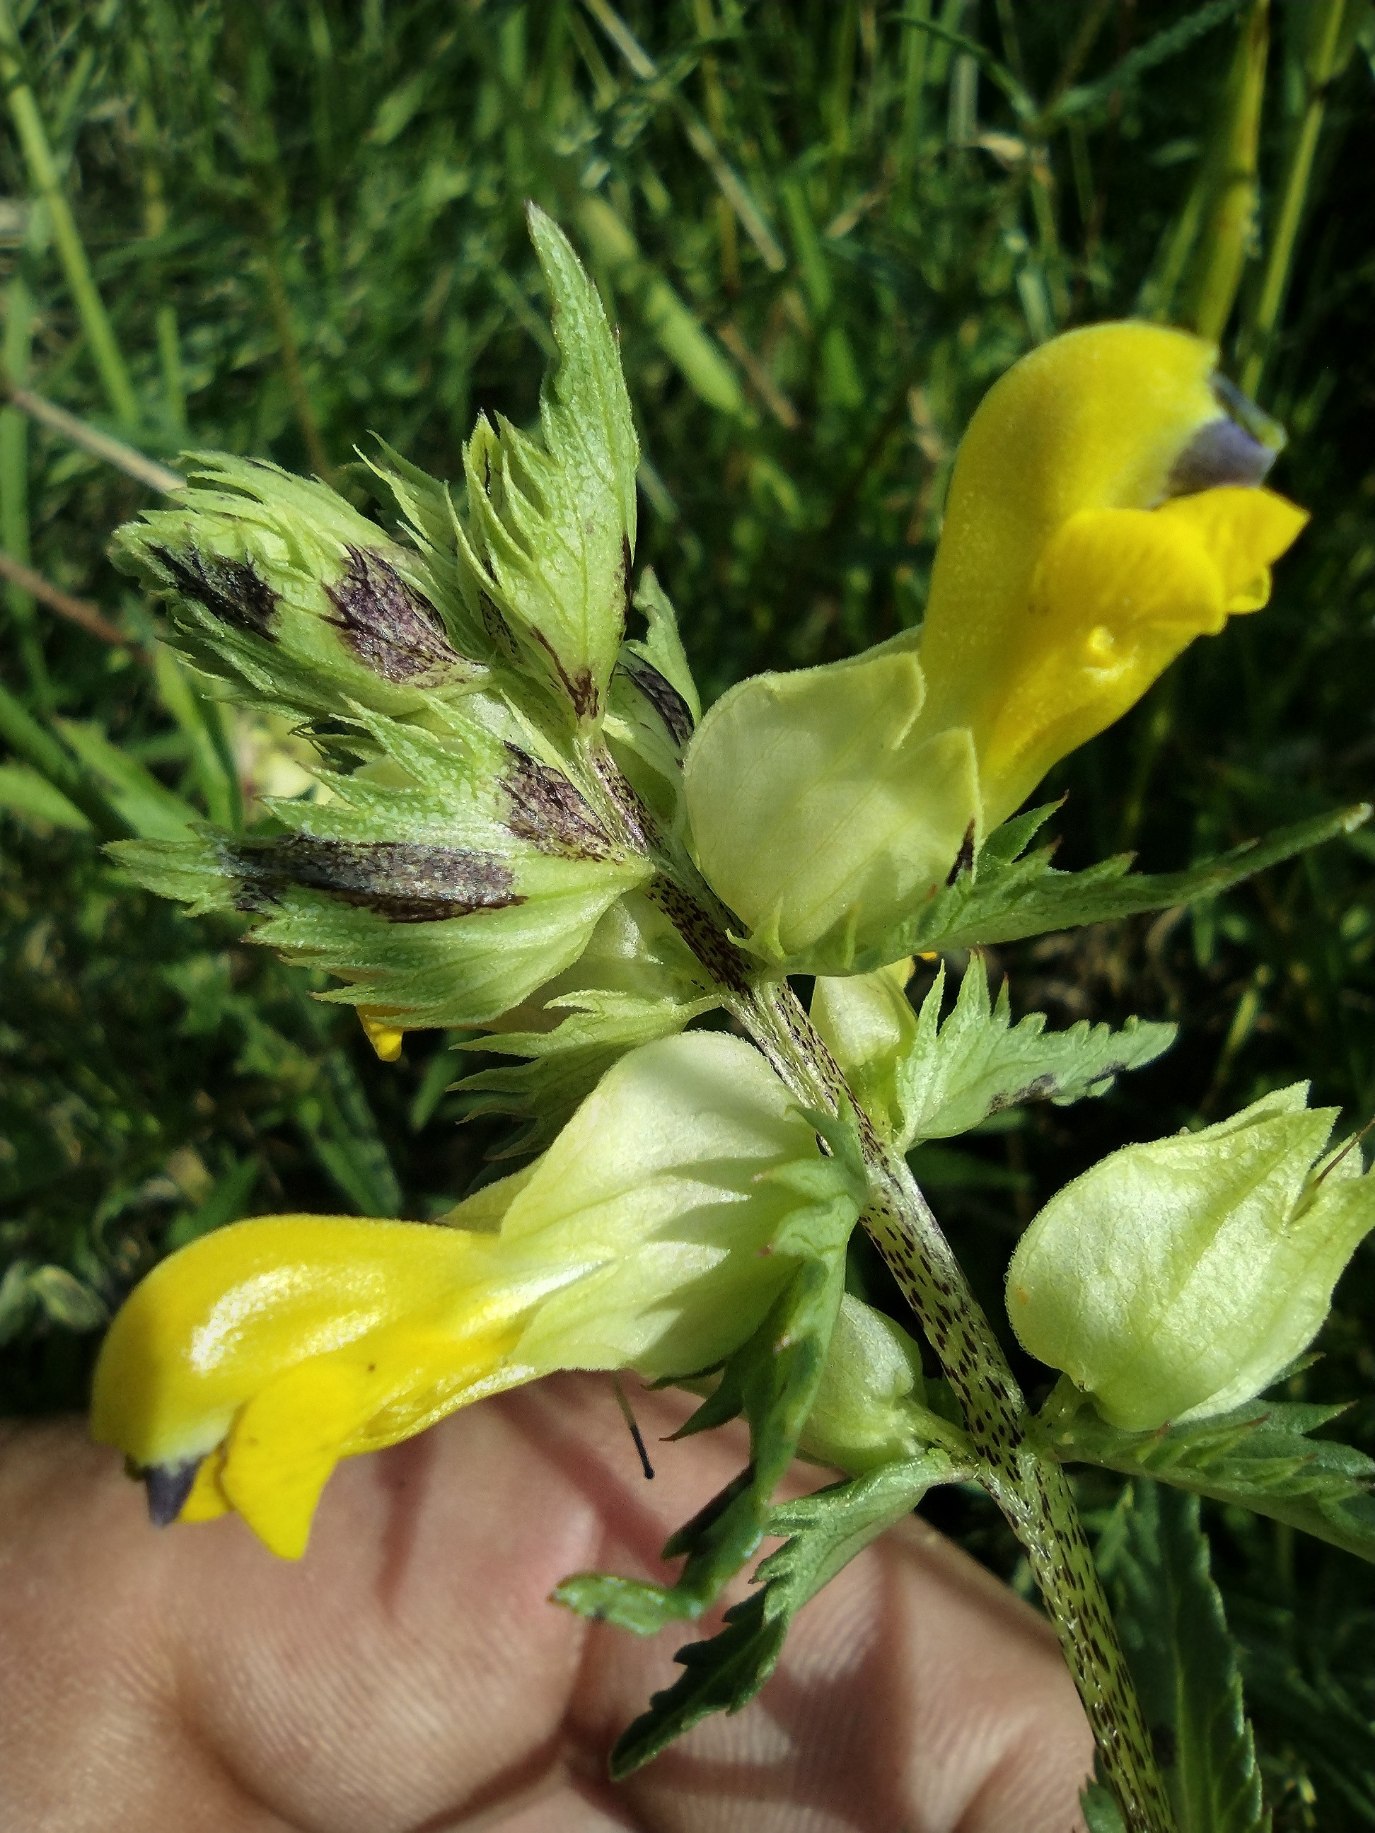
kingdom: Plantae
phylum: Tracheophyta
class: Magnoliopsida
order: Lamiales
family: Orobanchaceae
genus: Rhinanthus
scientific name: Rhinanthus
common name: Stor skjaller
